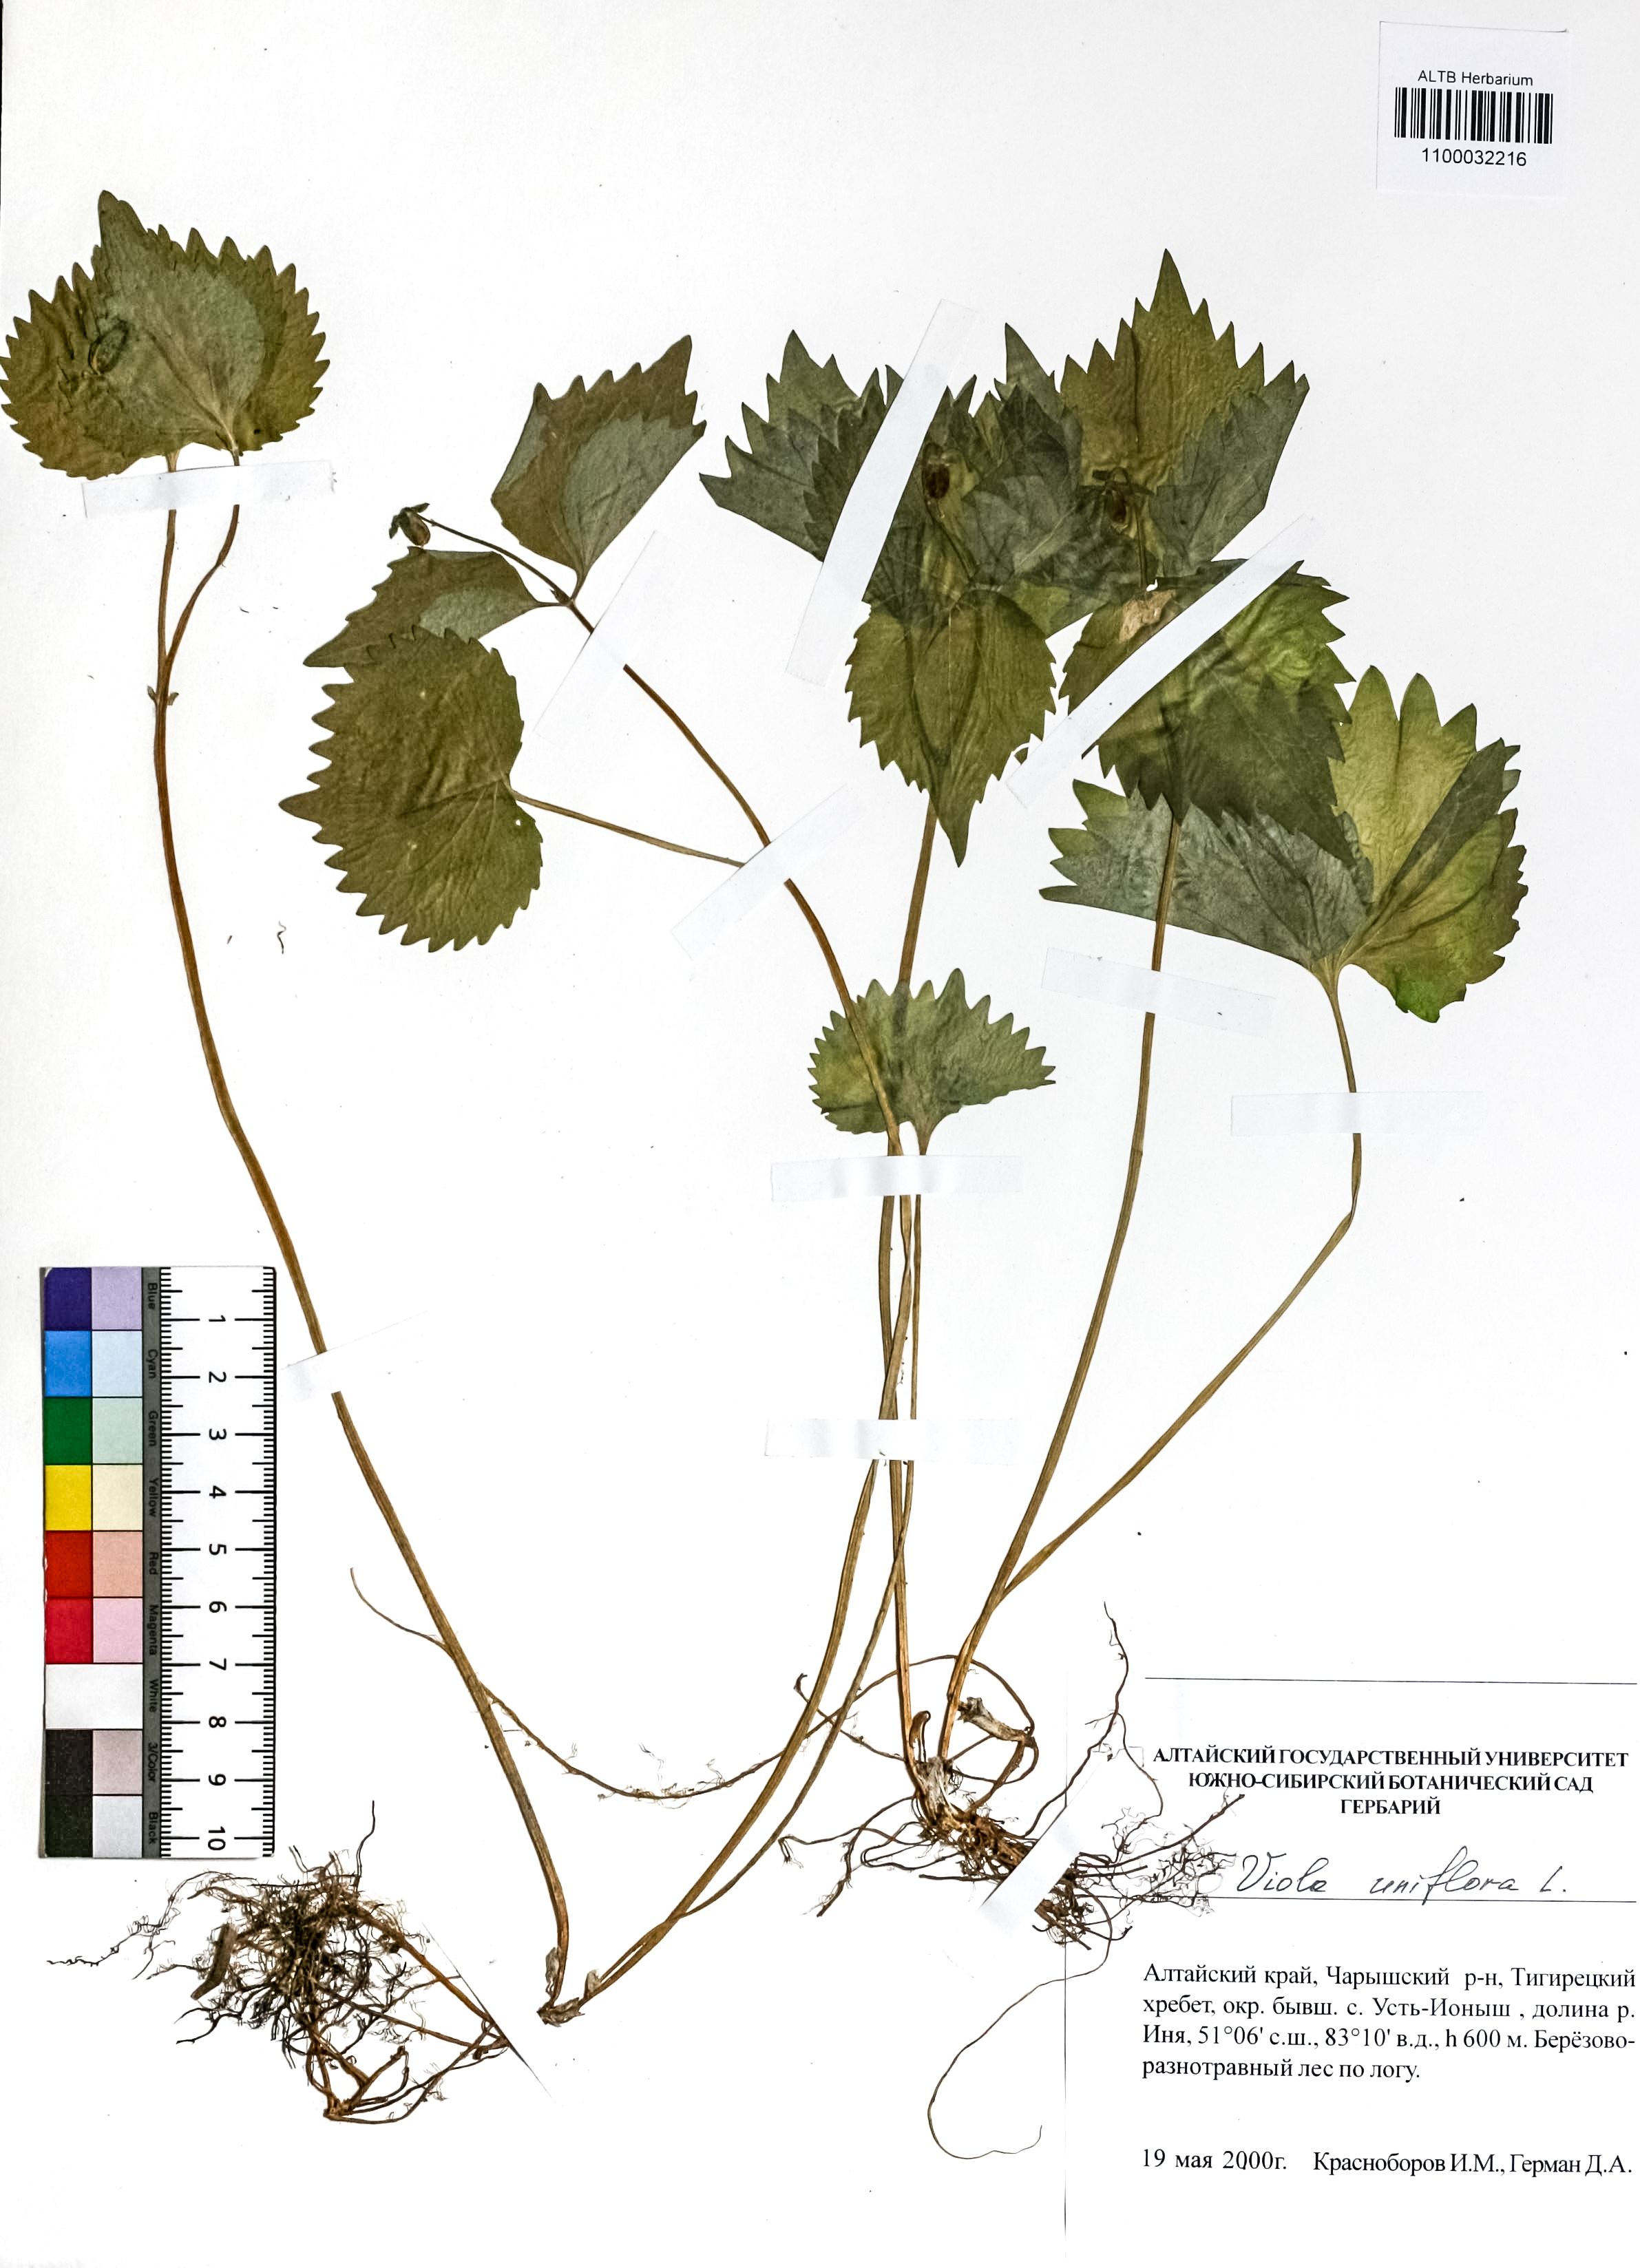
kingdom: Plantae
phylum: Tracheophyta
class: Magnoliopsida
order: Malpighiales
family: Violaceae
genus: Viola
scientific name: Viola uniflora
